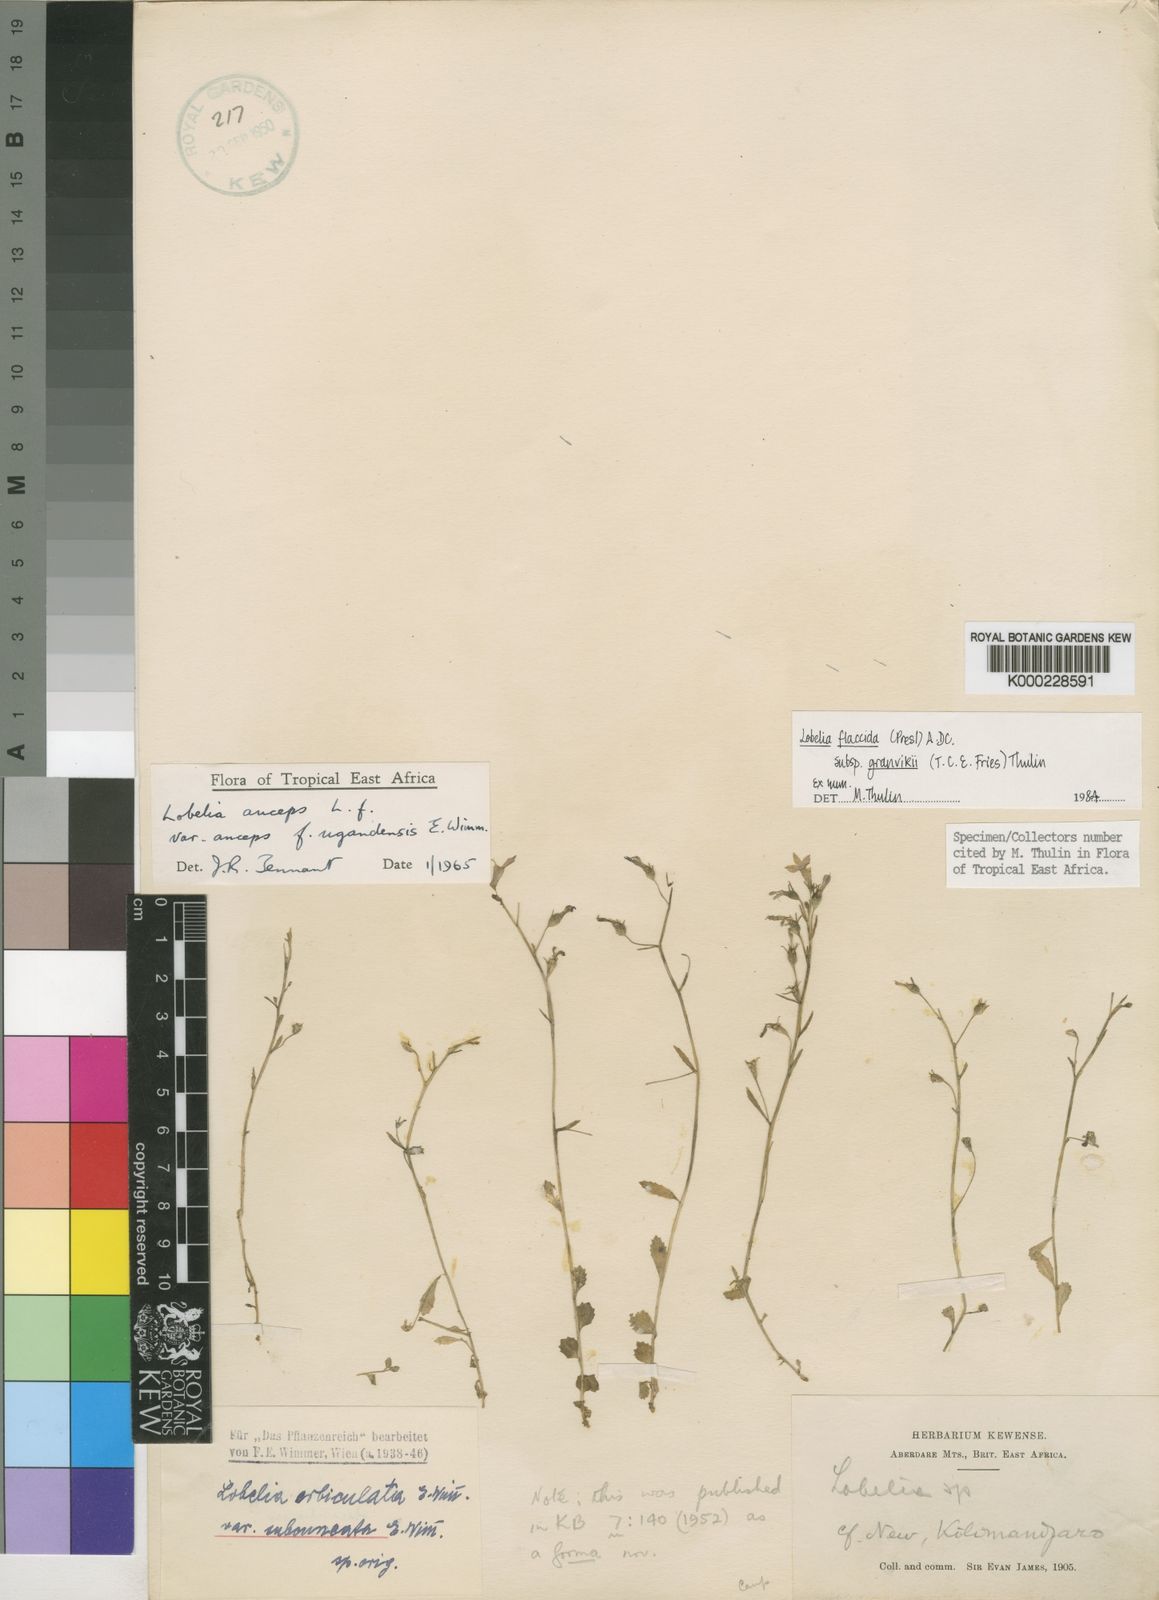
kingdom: Plantae
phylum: Tracheophyta
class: Magnoliopsida
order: Asterales
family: Campanulaceae
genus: Lobelia
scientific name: Lobelia flaccida
